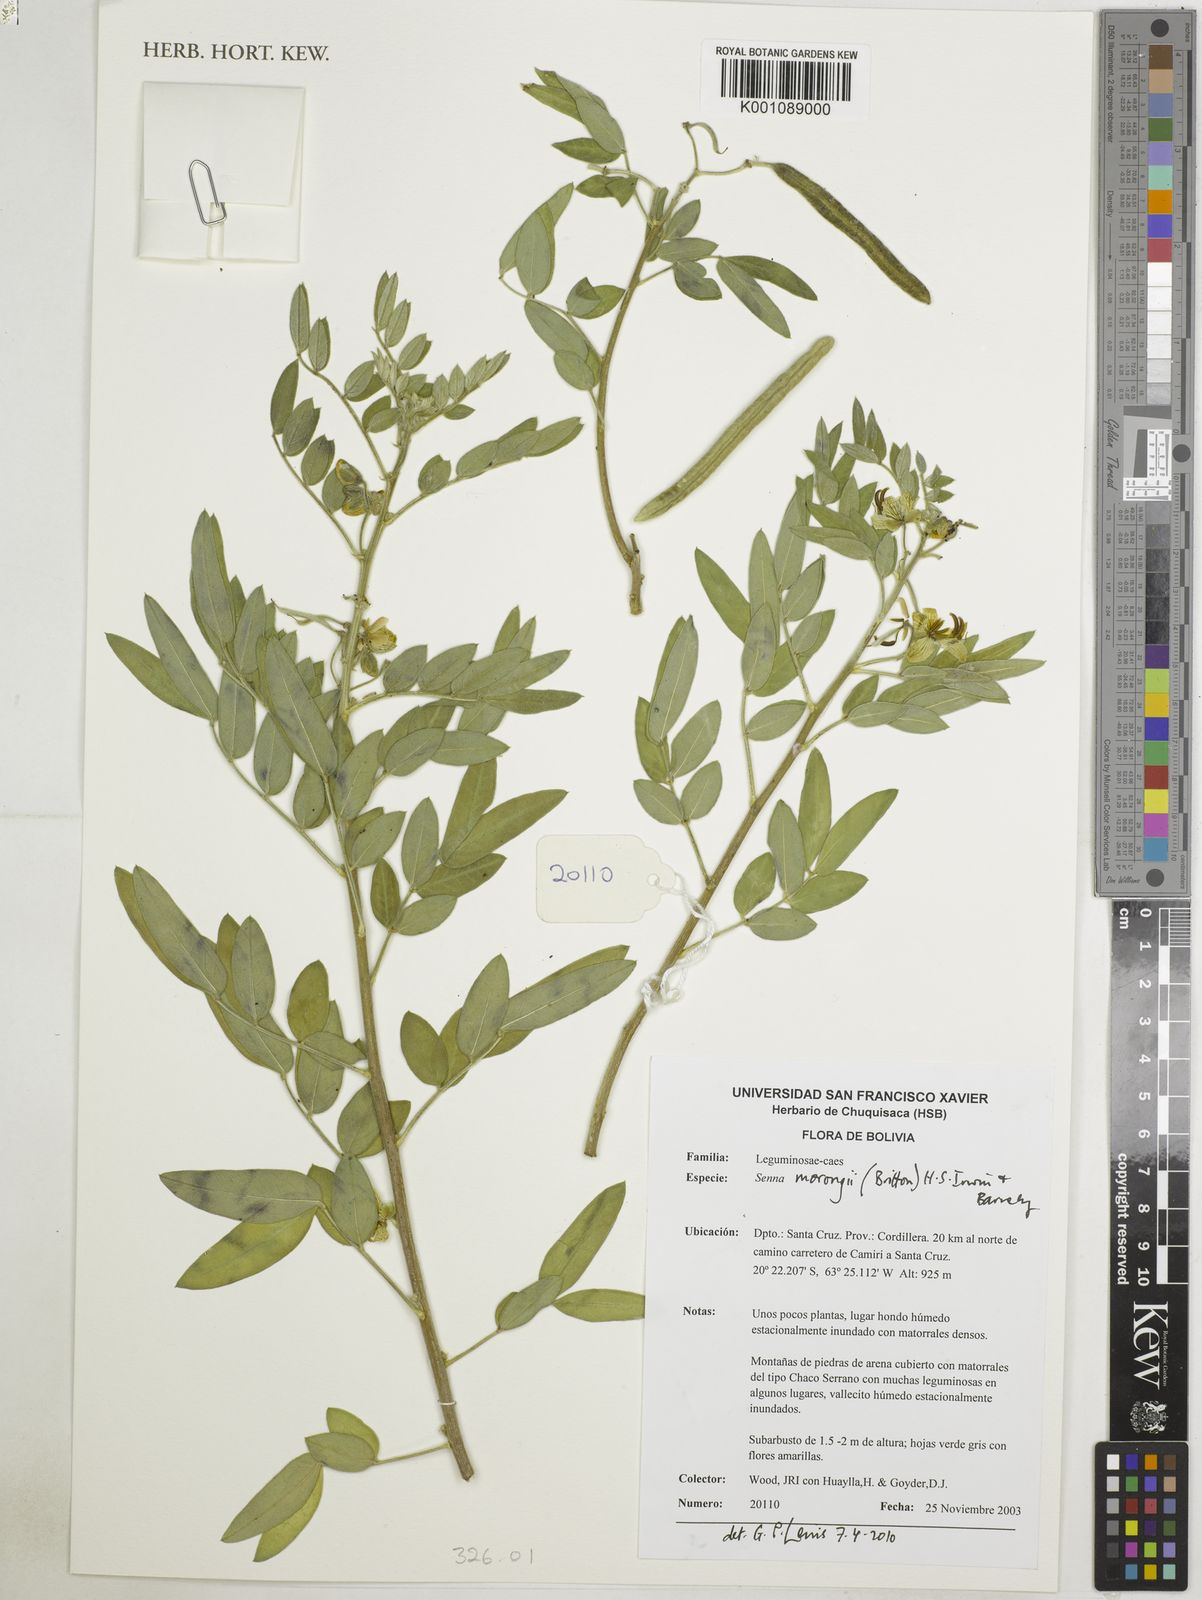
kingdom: Plantae
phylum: Tracheophyta
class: Magnoliopsida
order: Fabales
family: Fabaceae
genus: Senna
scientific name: Senna morongii
